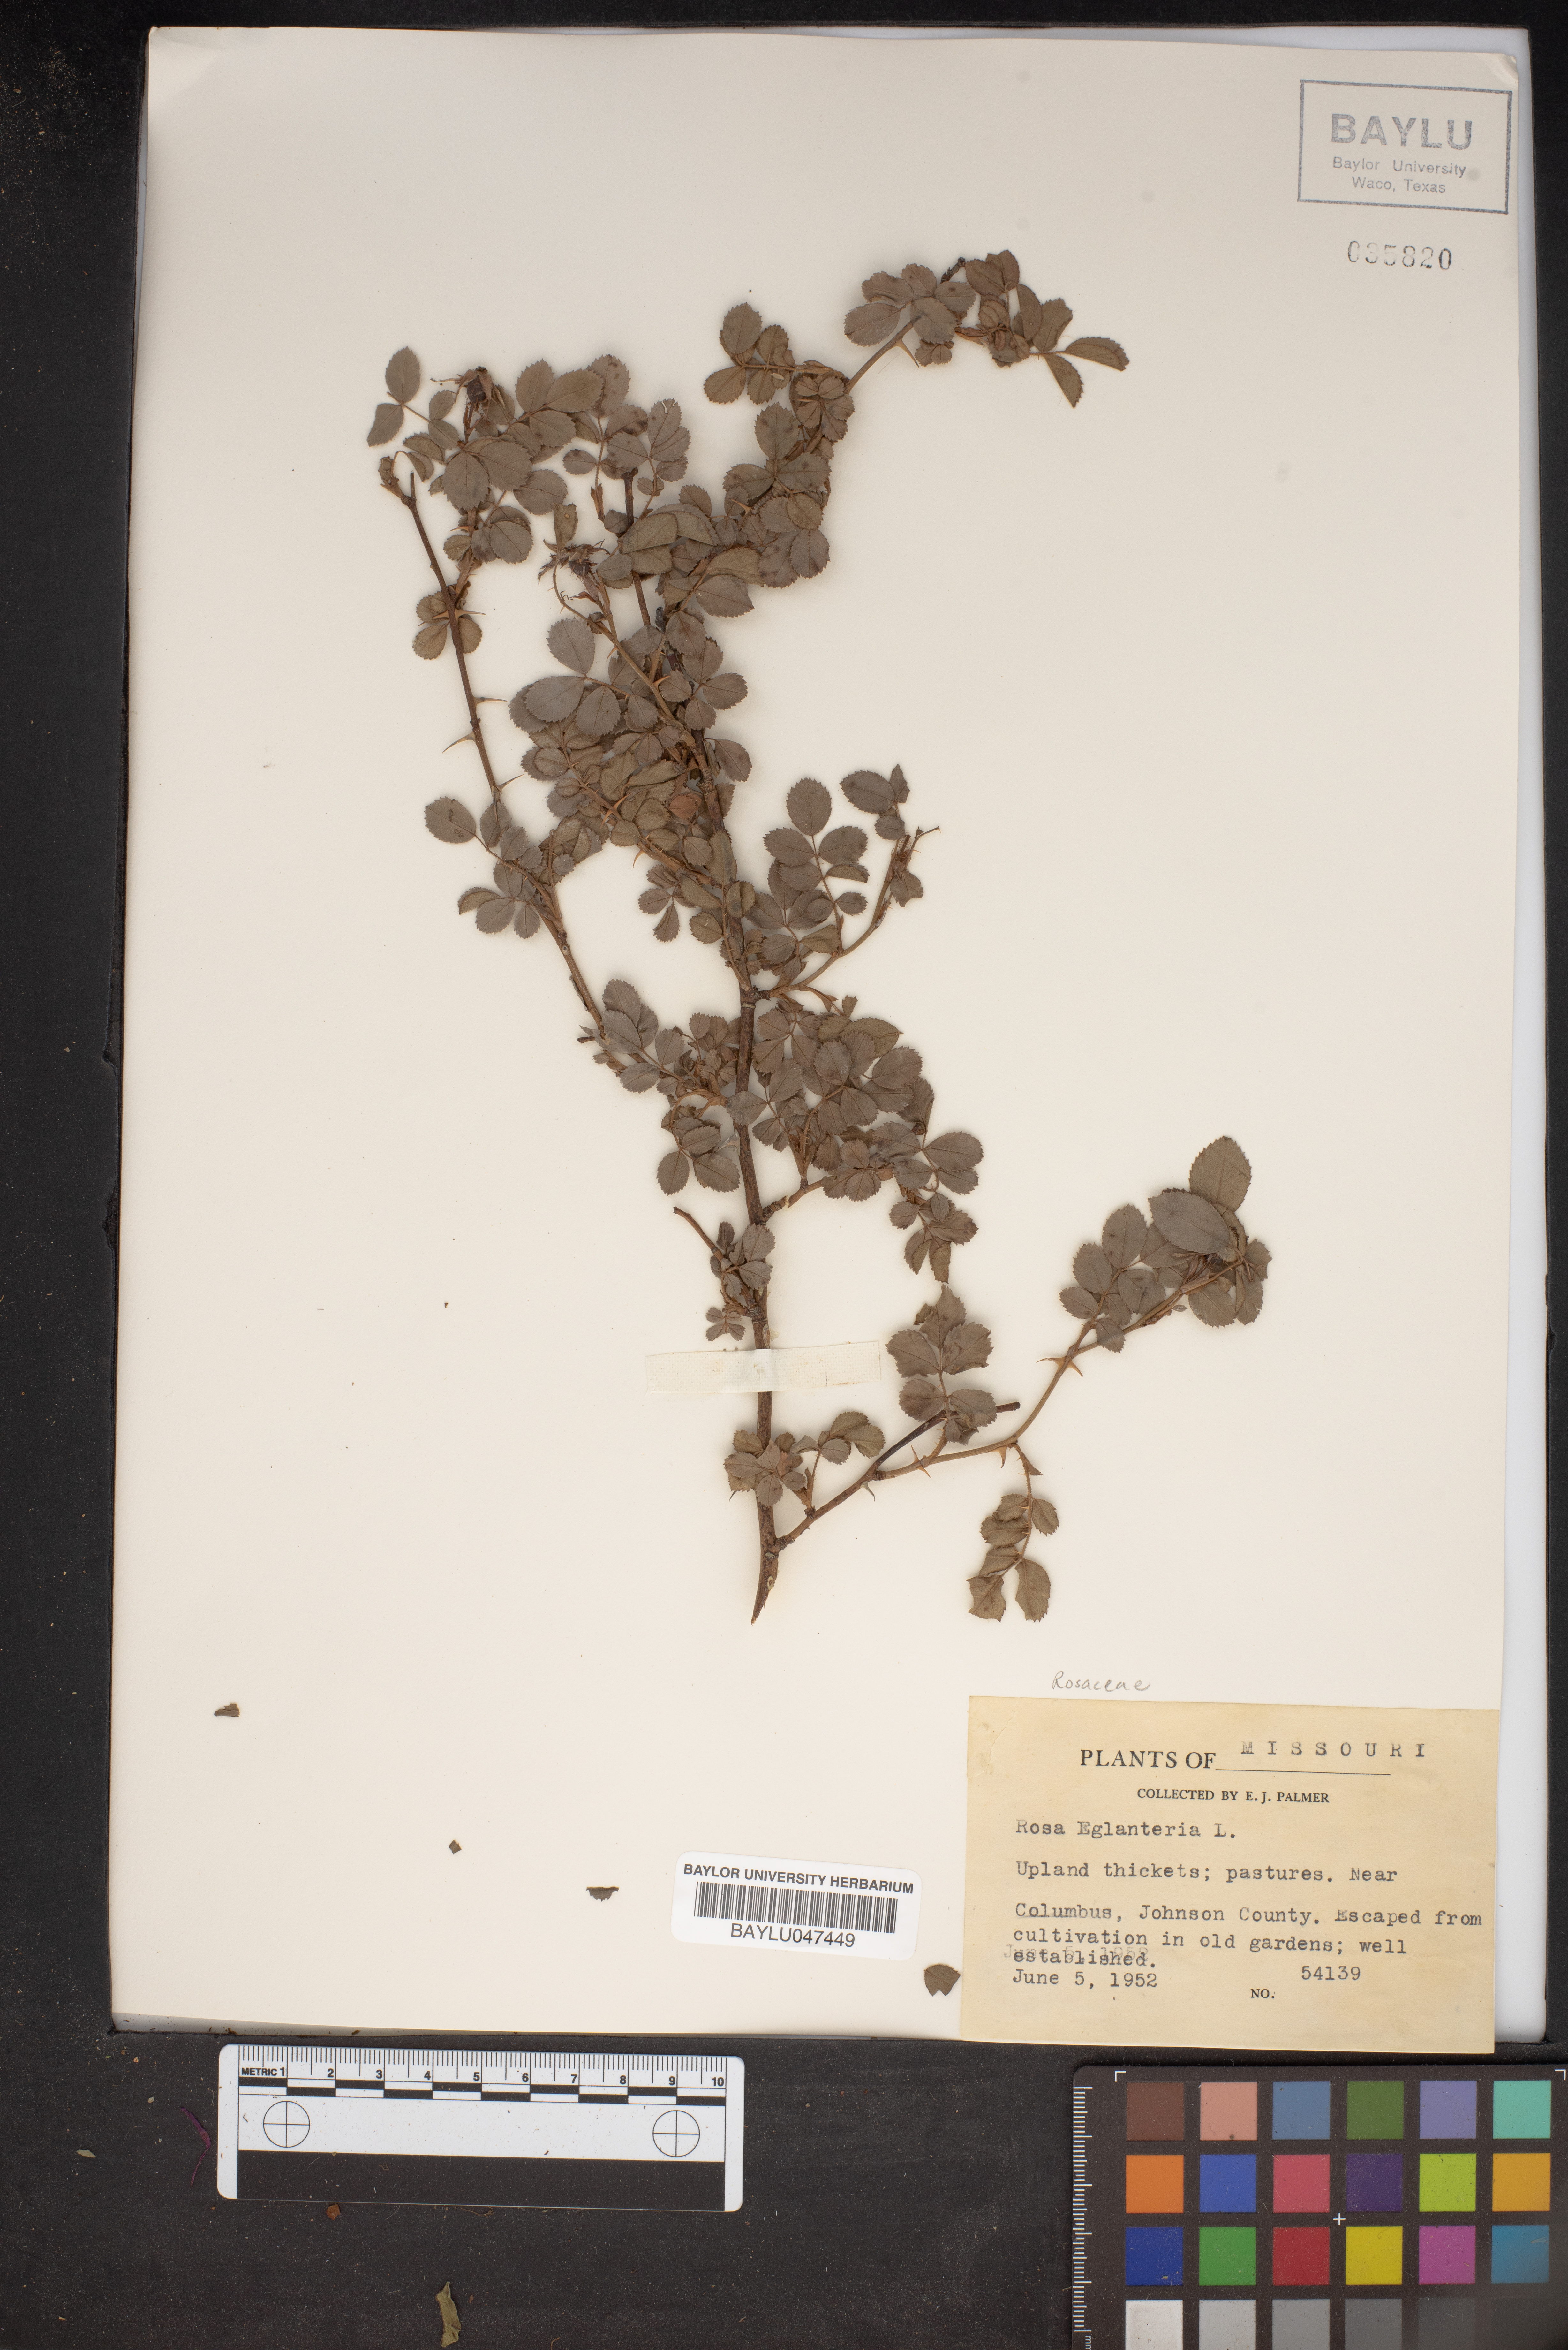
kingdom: Plantae
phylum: Tracheophyta
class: Magnoliopsida
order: Rosales
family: Rosaceae
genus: Rosa
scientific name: Rosa eglanteria
